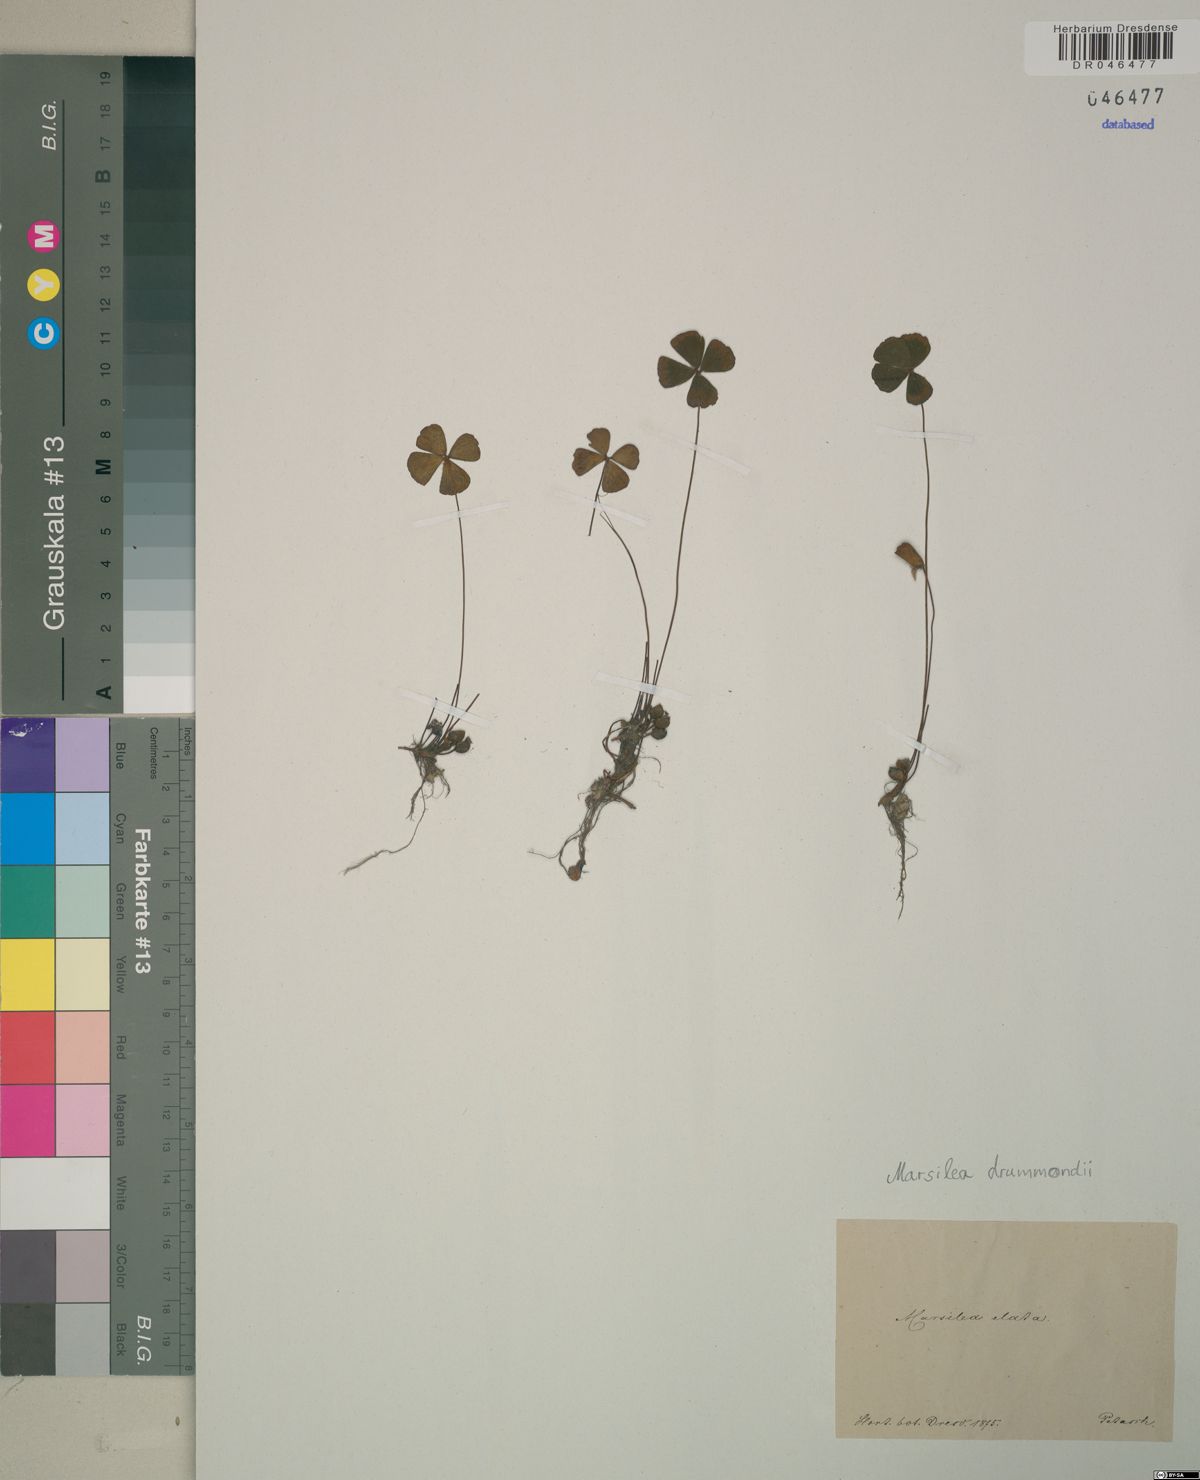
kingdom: Plantae
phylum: Tracheophyta
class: Polypodiopsida
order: Salviniales
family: Marsileaceae
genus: Marsilea
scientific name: Marsilea drummondii
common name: Nardoo
